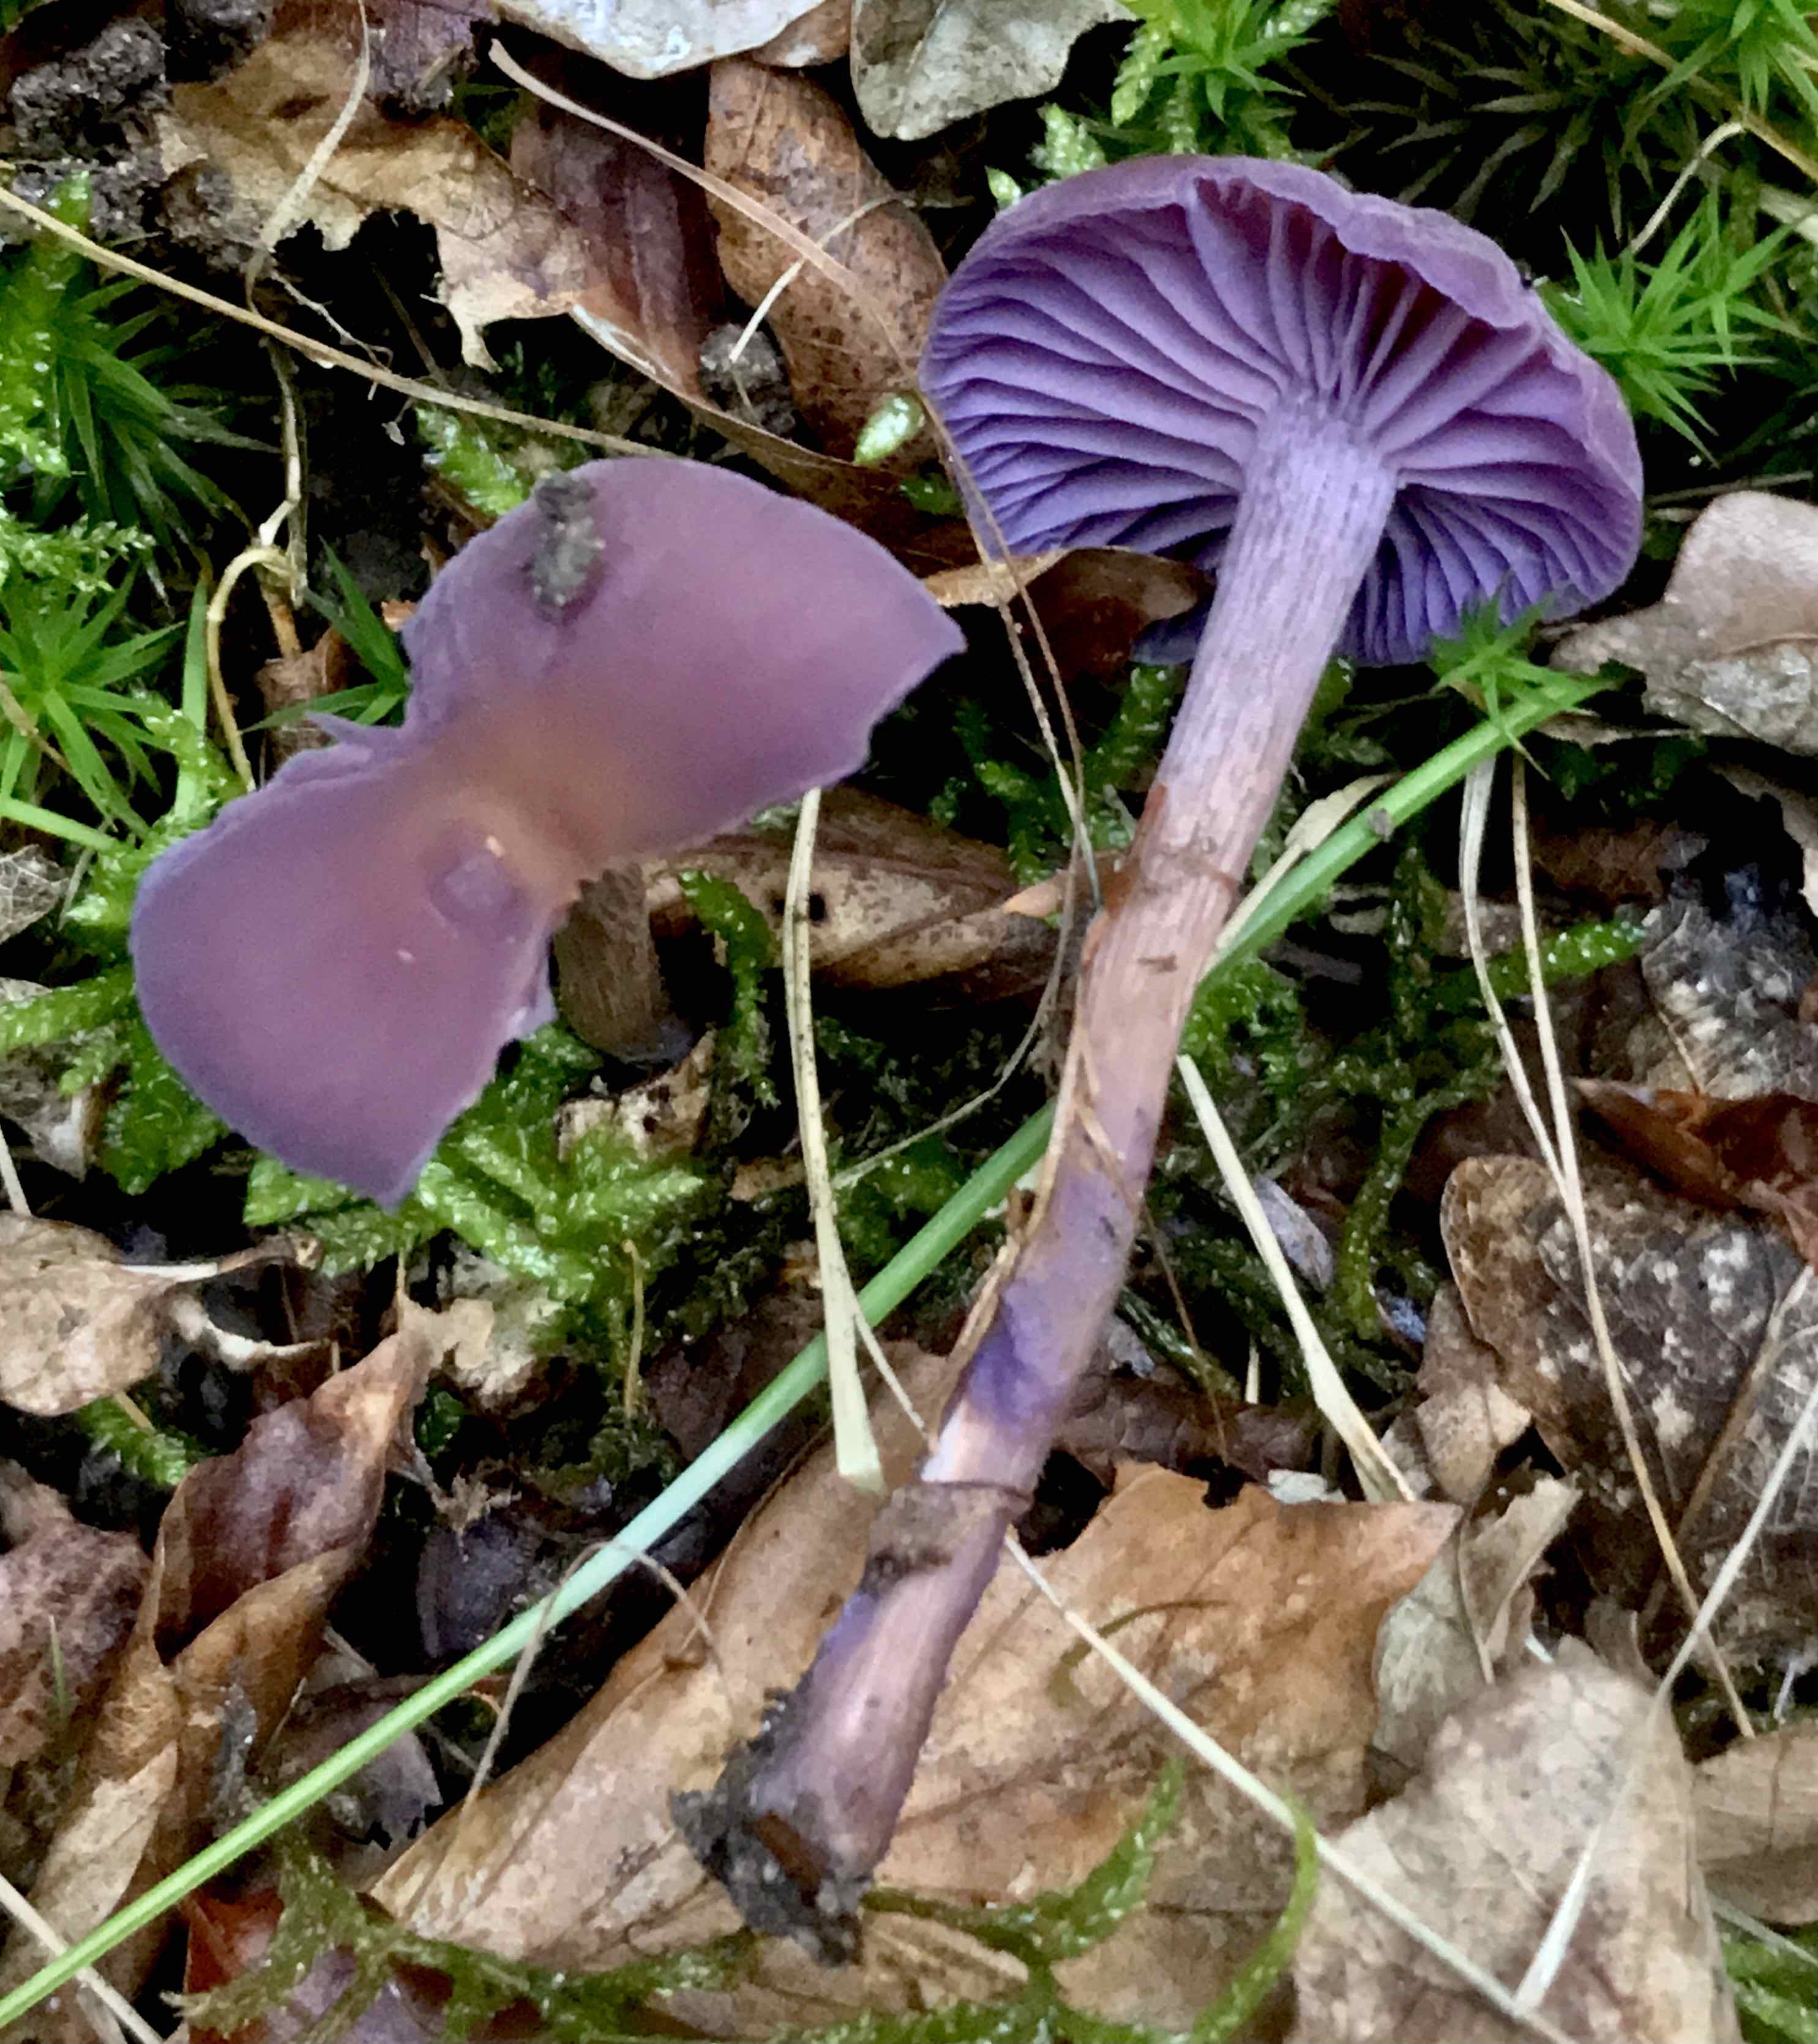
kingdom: Fungi
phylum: Basidiomycota
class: Agaricomycetes
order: Agaricales
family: Hydnangiaceae
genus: Laccaria
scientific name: Laccaria amethystina
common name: violet ametysthat
